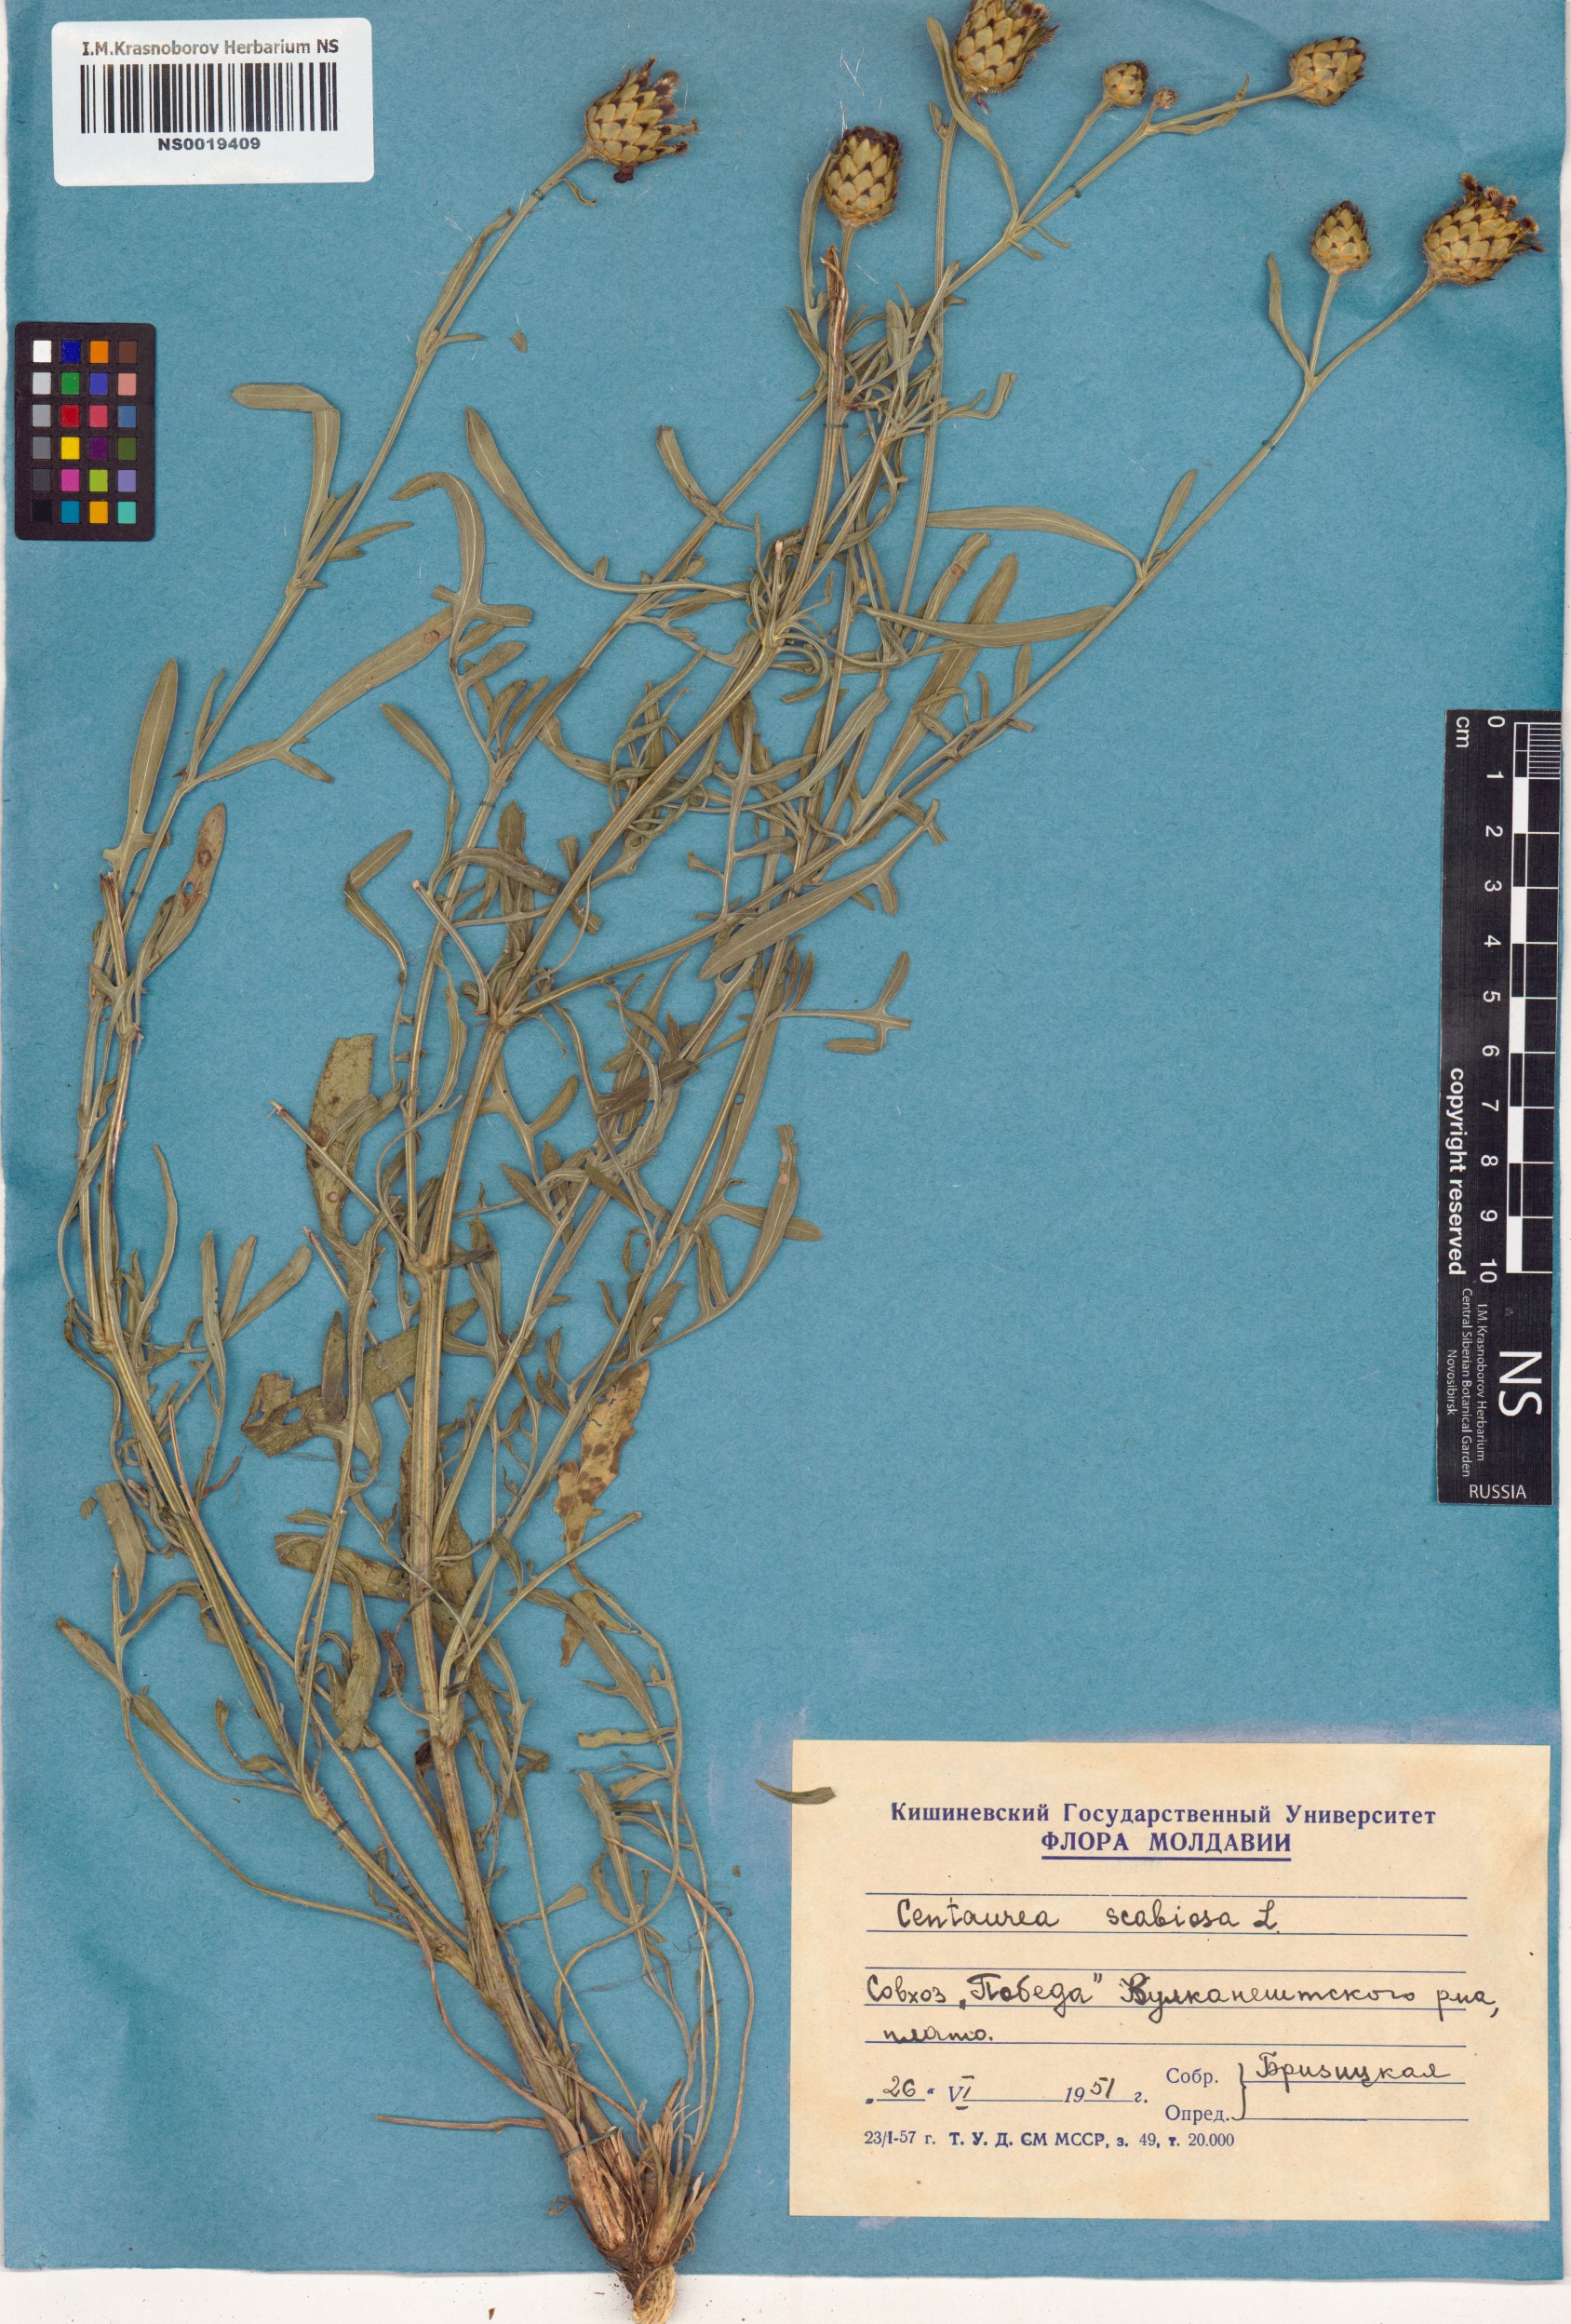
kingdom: Plantae
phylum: Tracheophyta
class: Magnoliopsida
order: Asterales
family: Asteraceae
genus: Centaurea
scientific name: Centaurea scabiosa
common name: Greater knapweed
